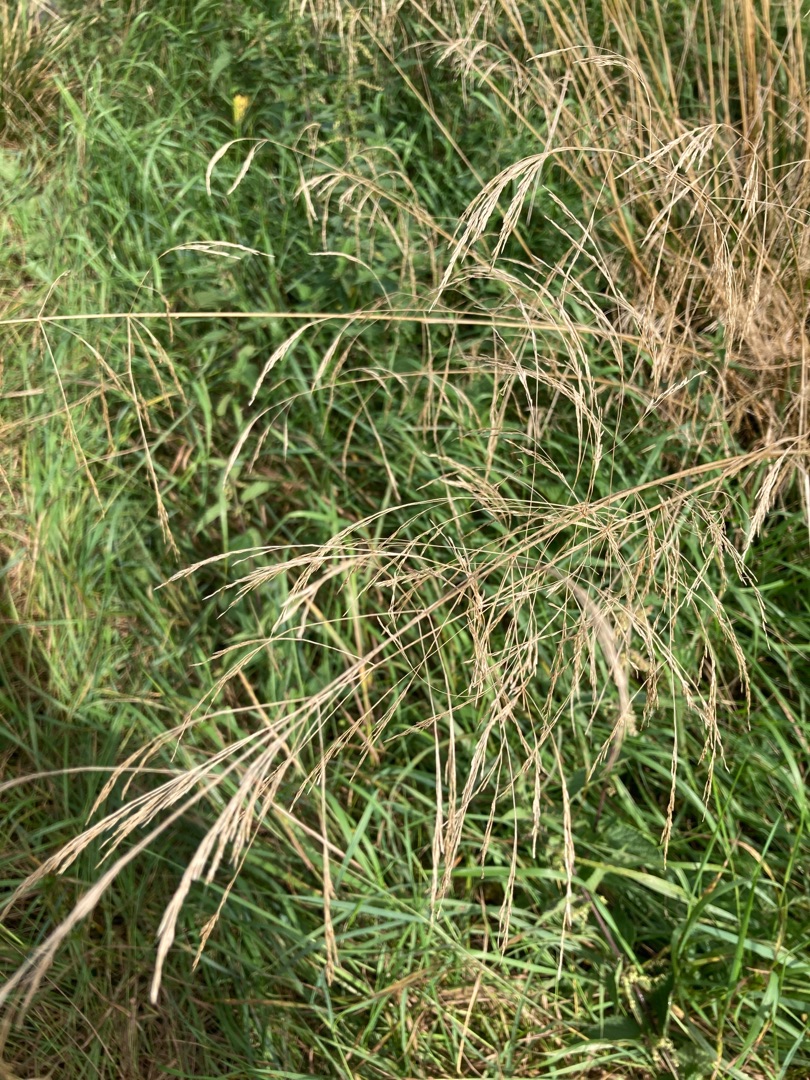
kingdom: Plantae
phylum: Tracheophyta
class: Liliopsida
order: Poales
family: Poaceae
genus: Deschampsia
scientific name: Deschampsia cespitosa
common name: Mose-bunke
